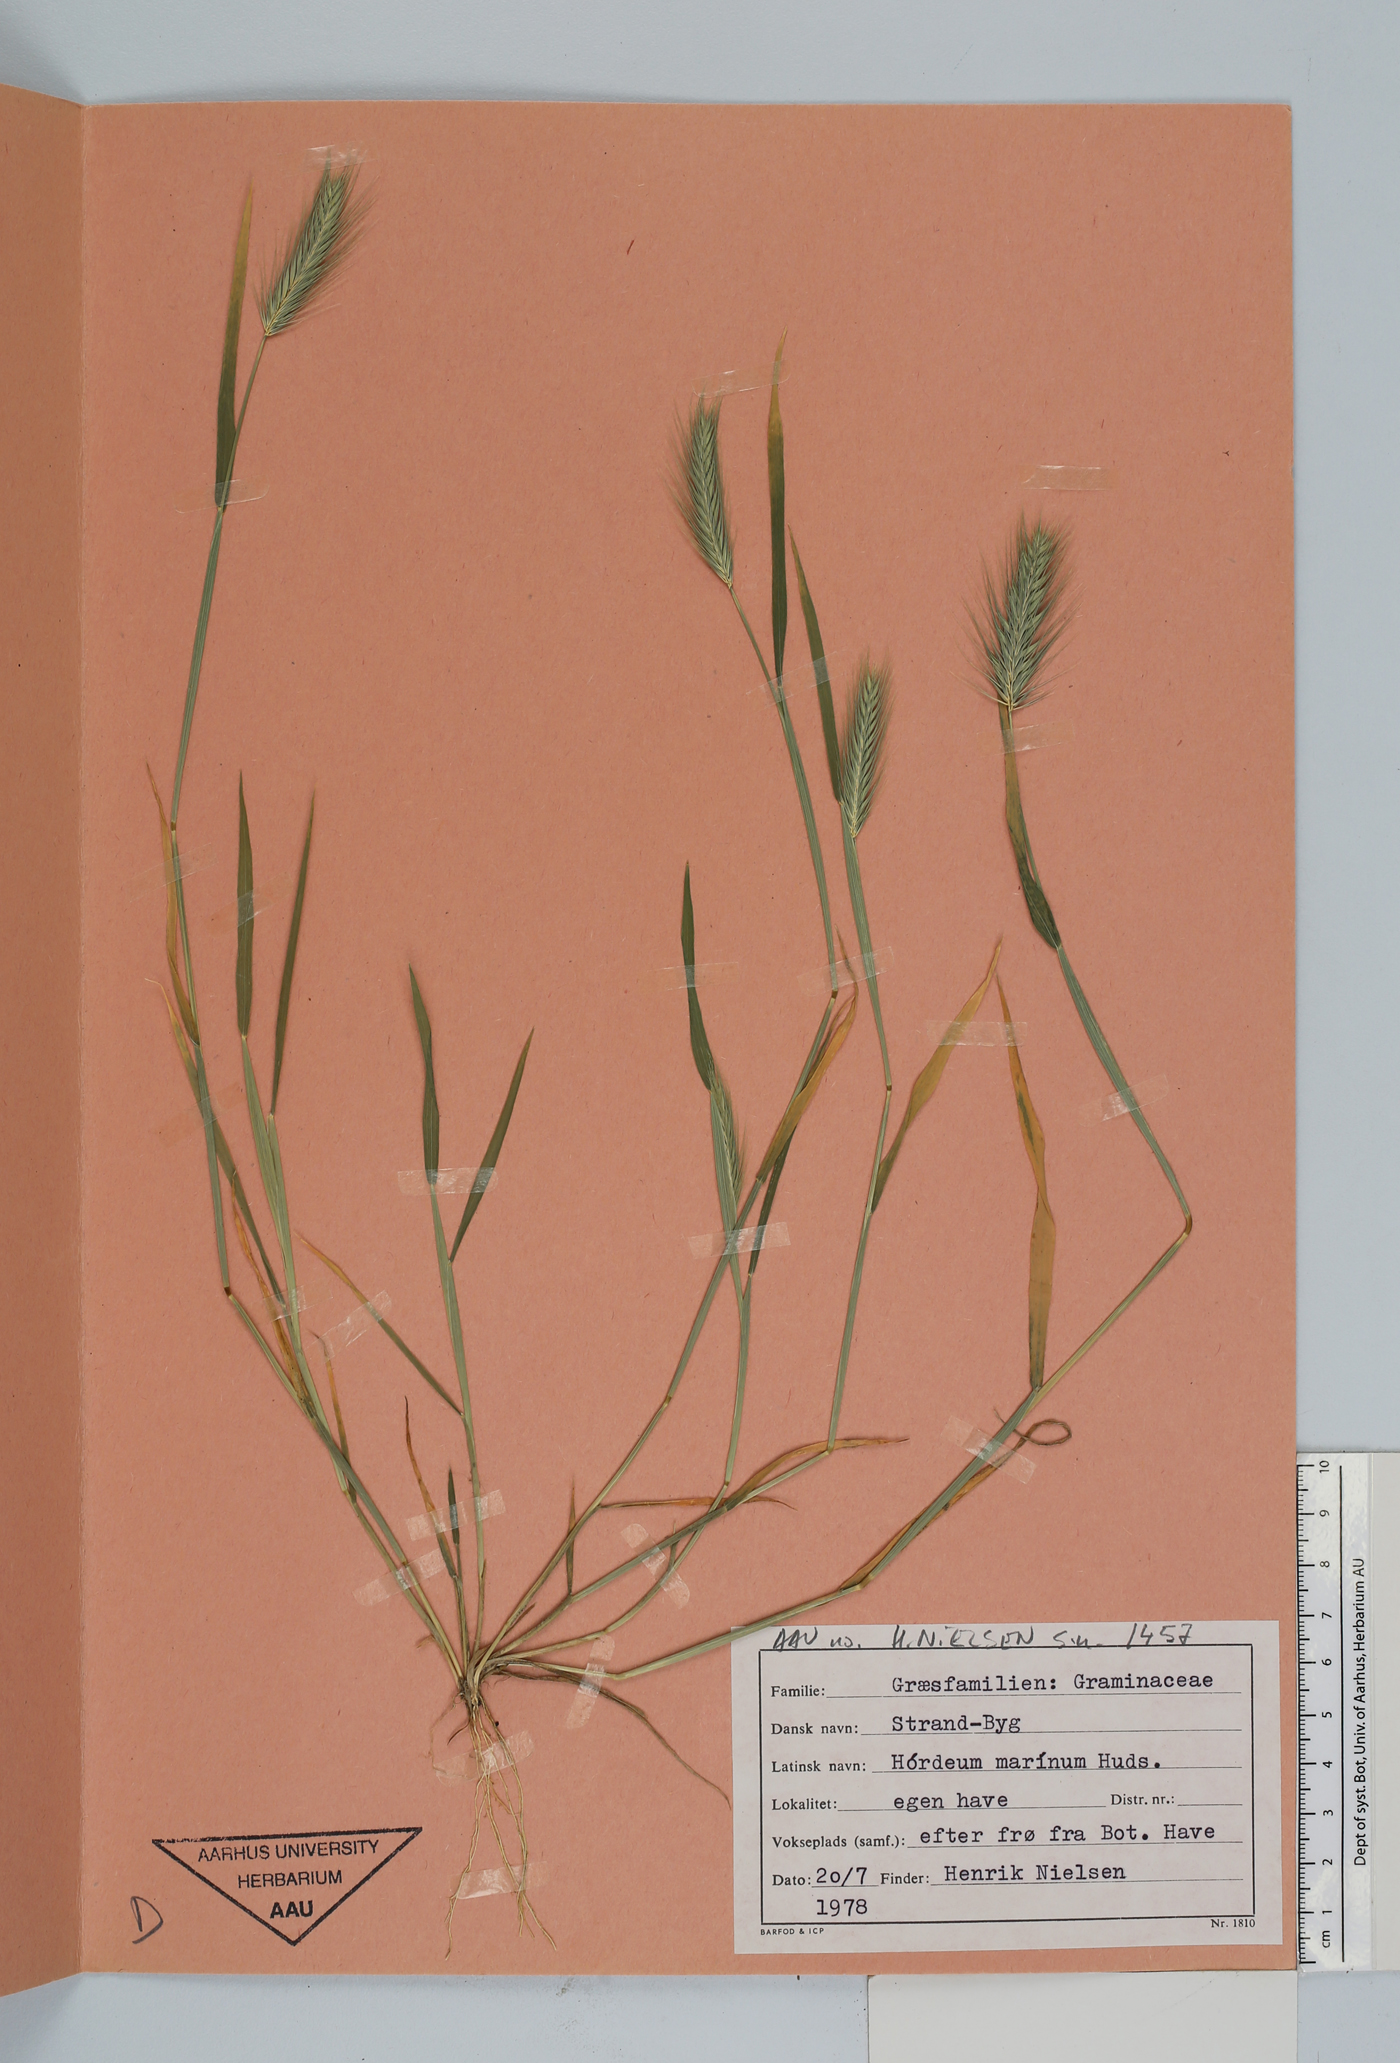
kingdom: Plantae
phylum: Tracheophyta
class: Liliopsida
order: Poales
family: Poaceae
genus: Hordeum
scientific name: Hordeum marinum
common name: Sea barley
